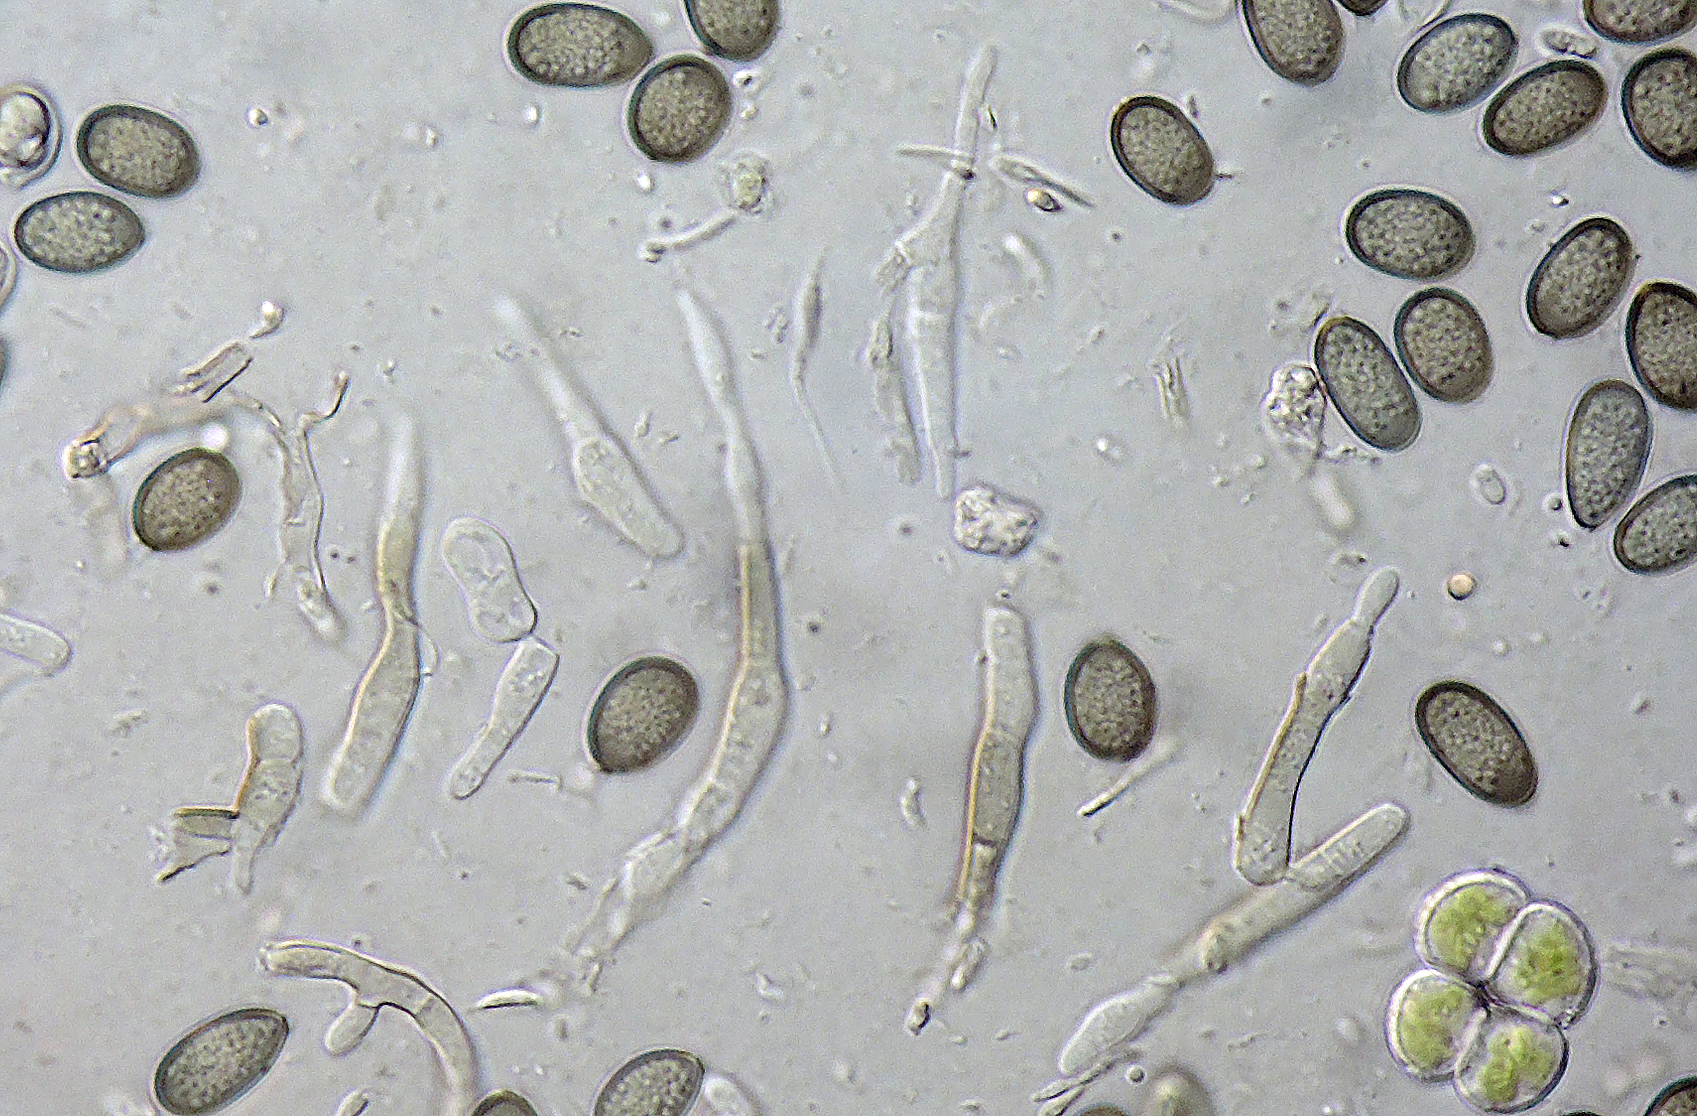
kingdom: Fungi
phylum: Ascomycota
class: Sordariomycetes
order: Diaporthales
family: Melanconidaceae
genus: Melanconis
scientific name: Melanconis alni
